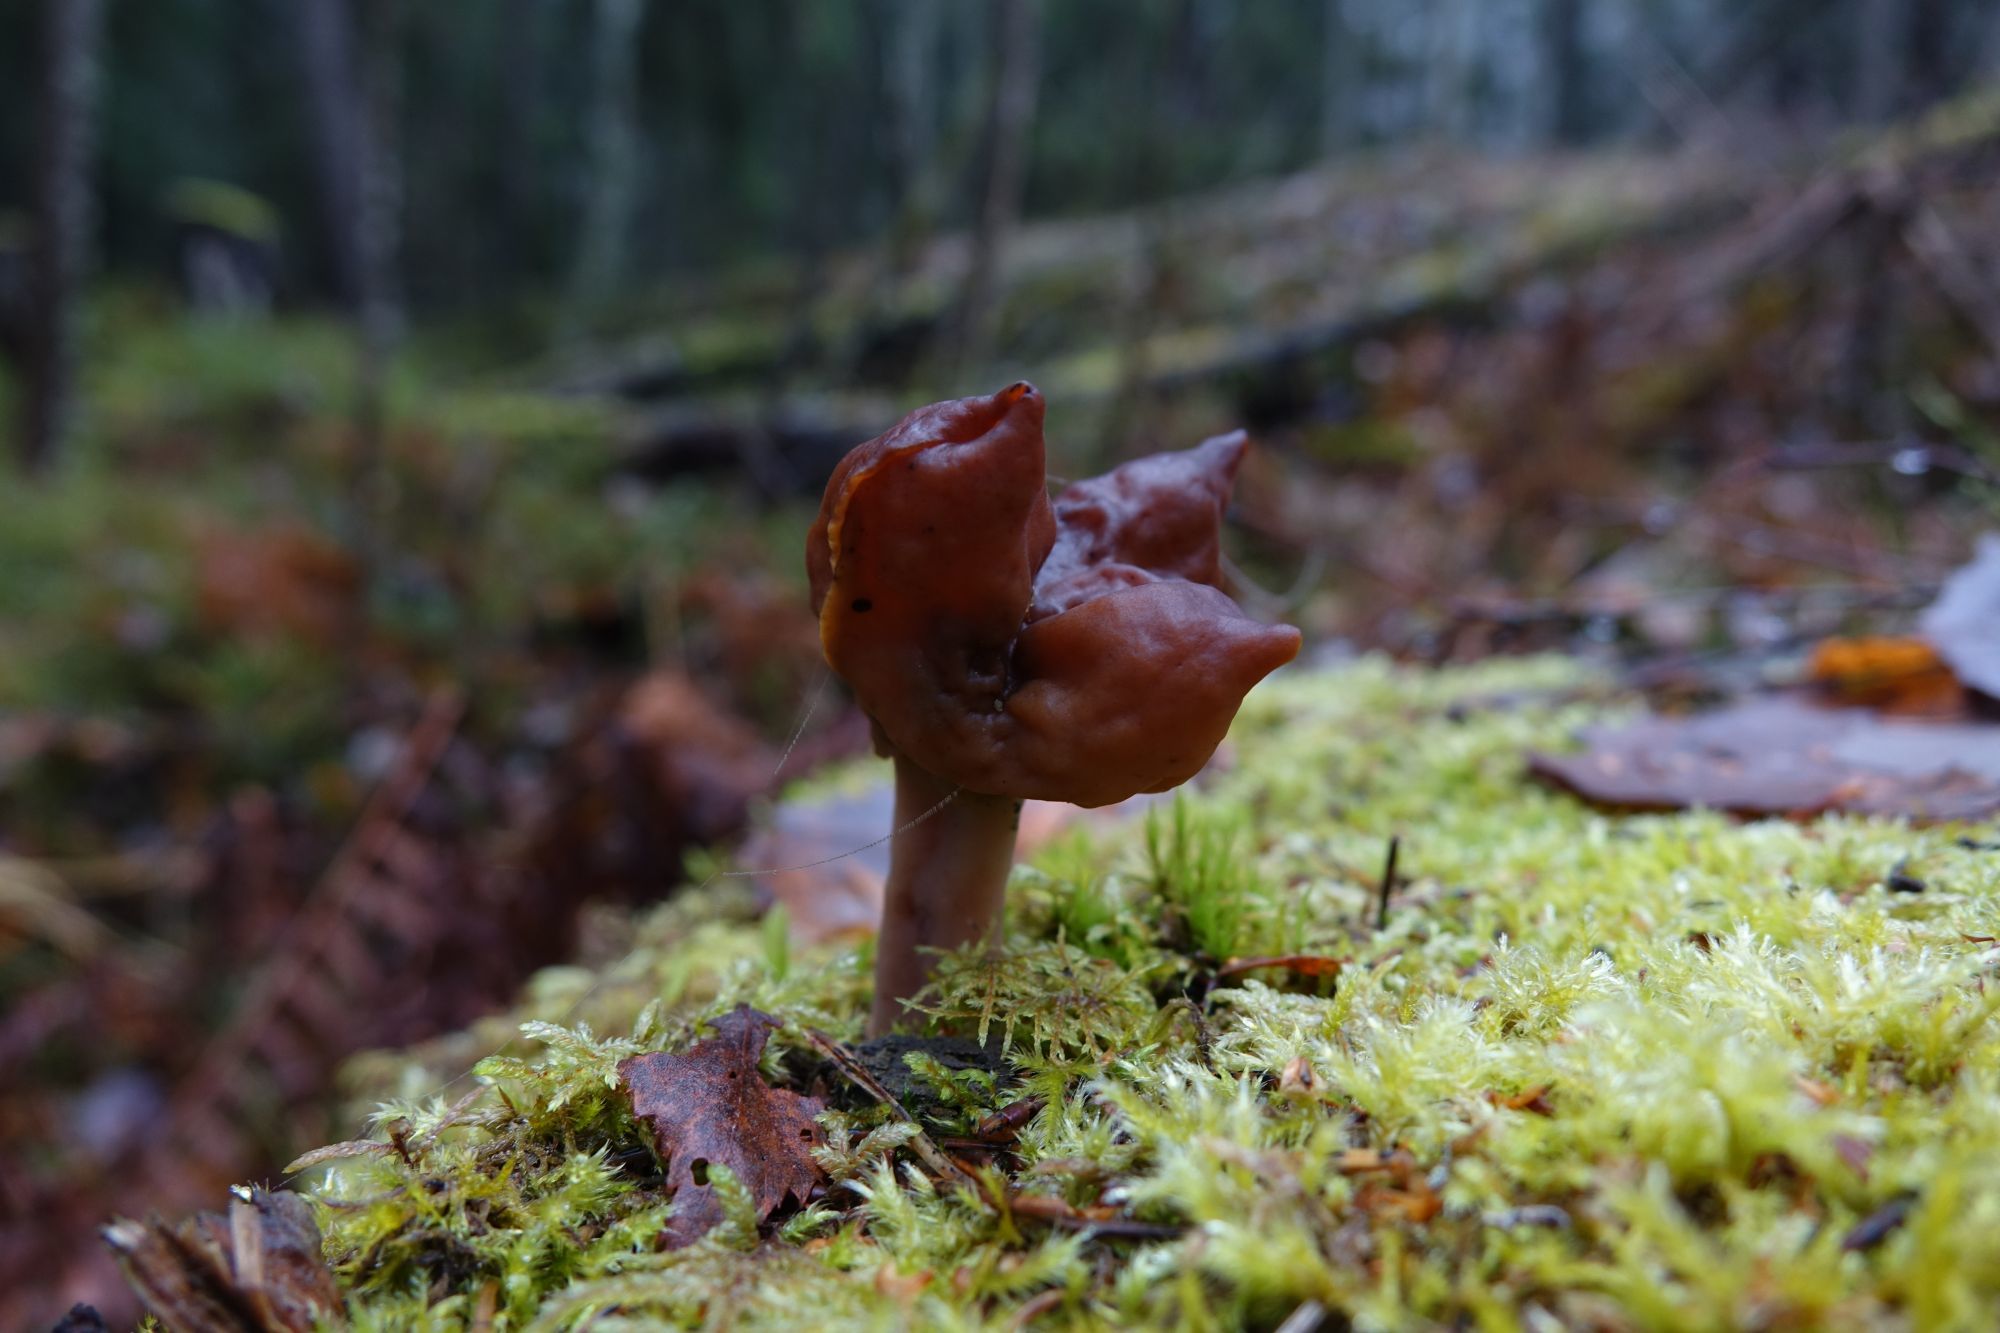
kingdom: Fungi
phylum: Ascomycota
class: Pezizomycetes
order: Pezizales
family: Discinaceae
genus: Gyromitra
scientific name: Gyromitra infula
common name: Pouched false morel
